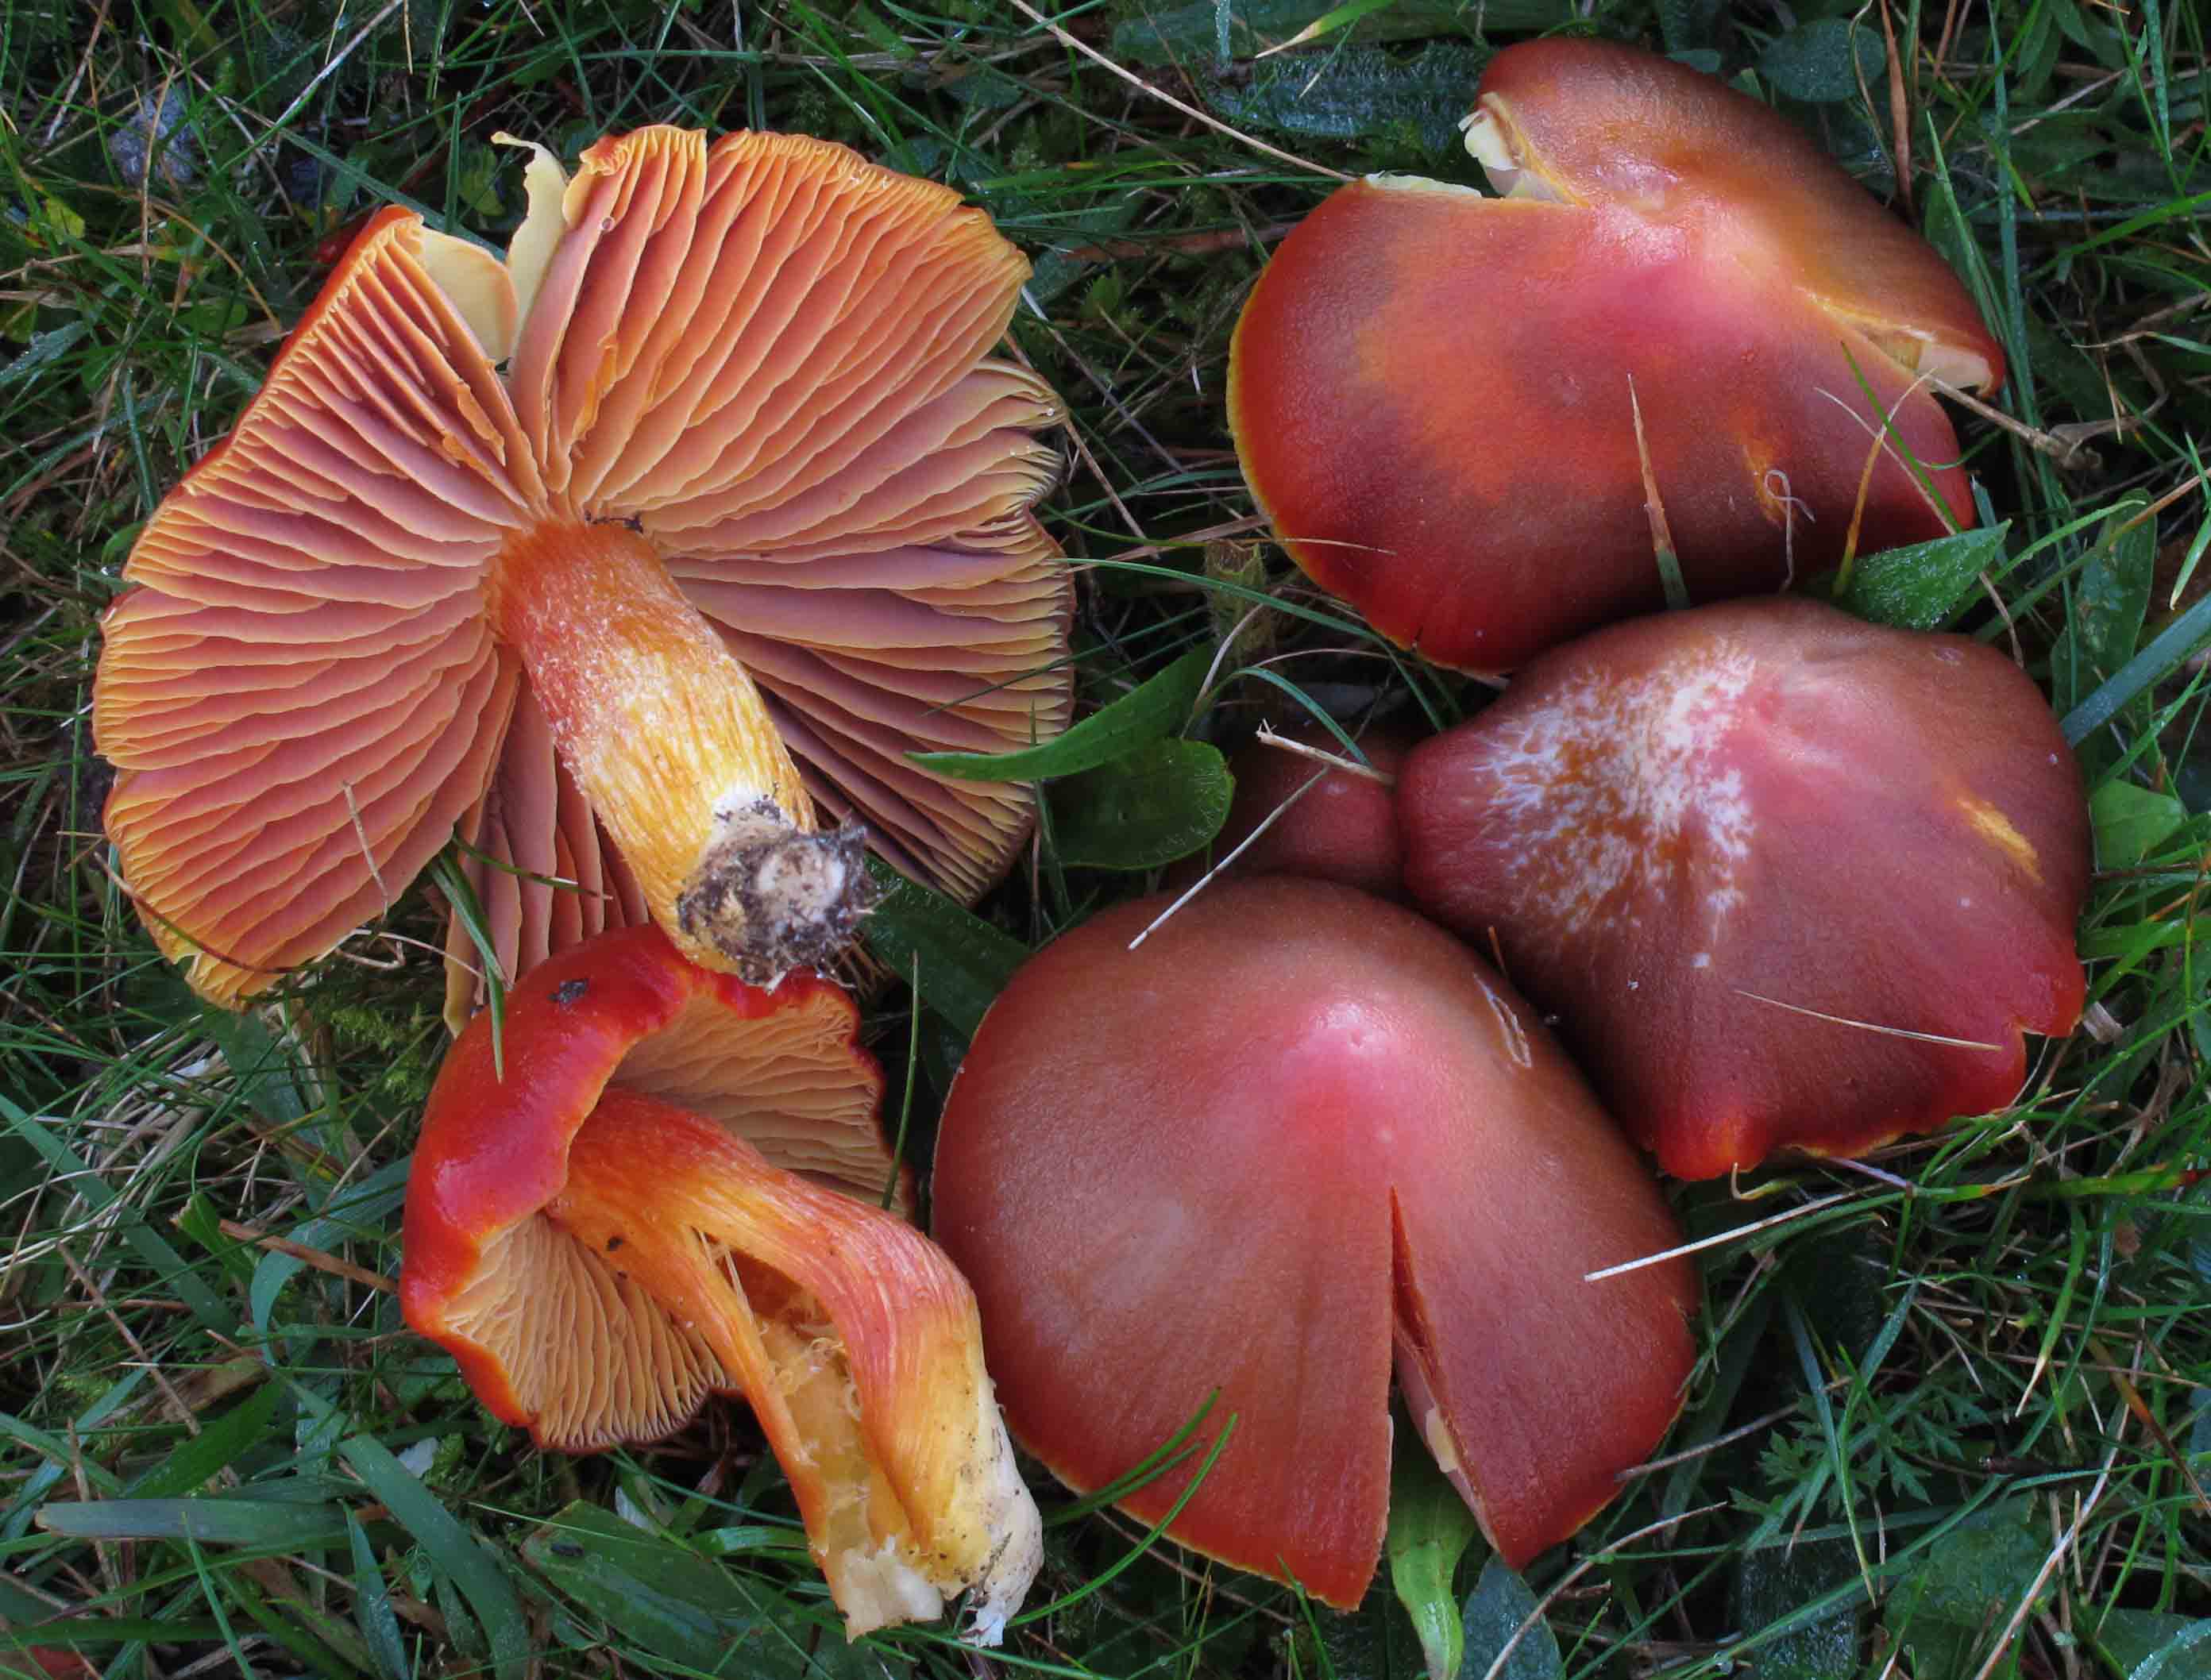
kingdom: Fungi
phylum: Basidiomycota
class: Agaricomycetes
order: Agaricales
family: Hygrophoraceae
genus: Hygrocybe
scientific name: Hygrocybe punicea
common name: skarlagen-vokshat
